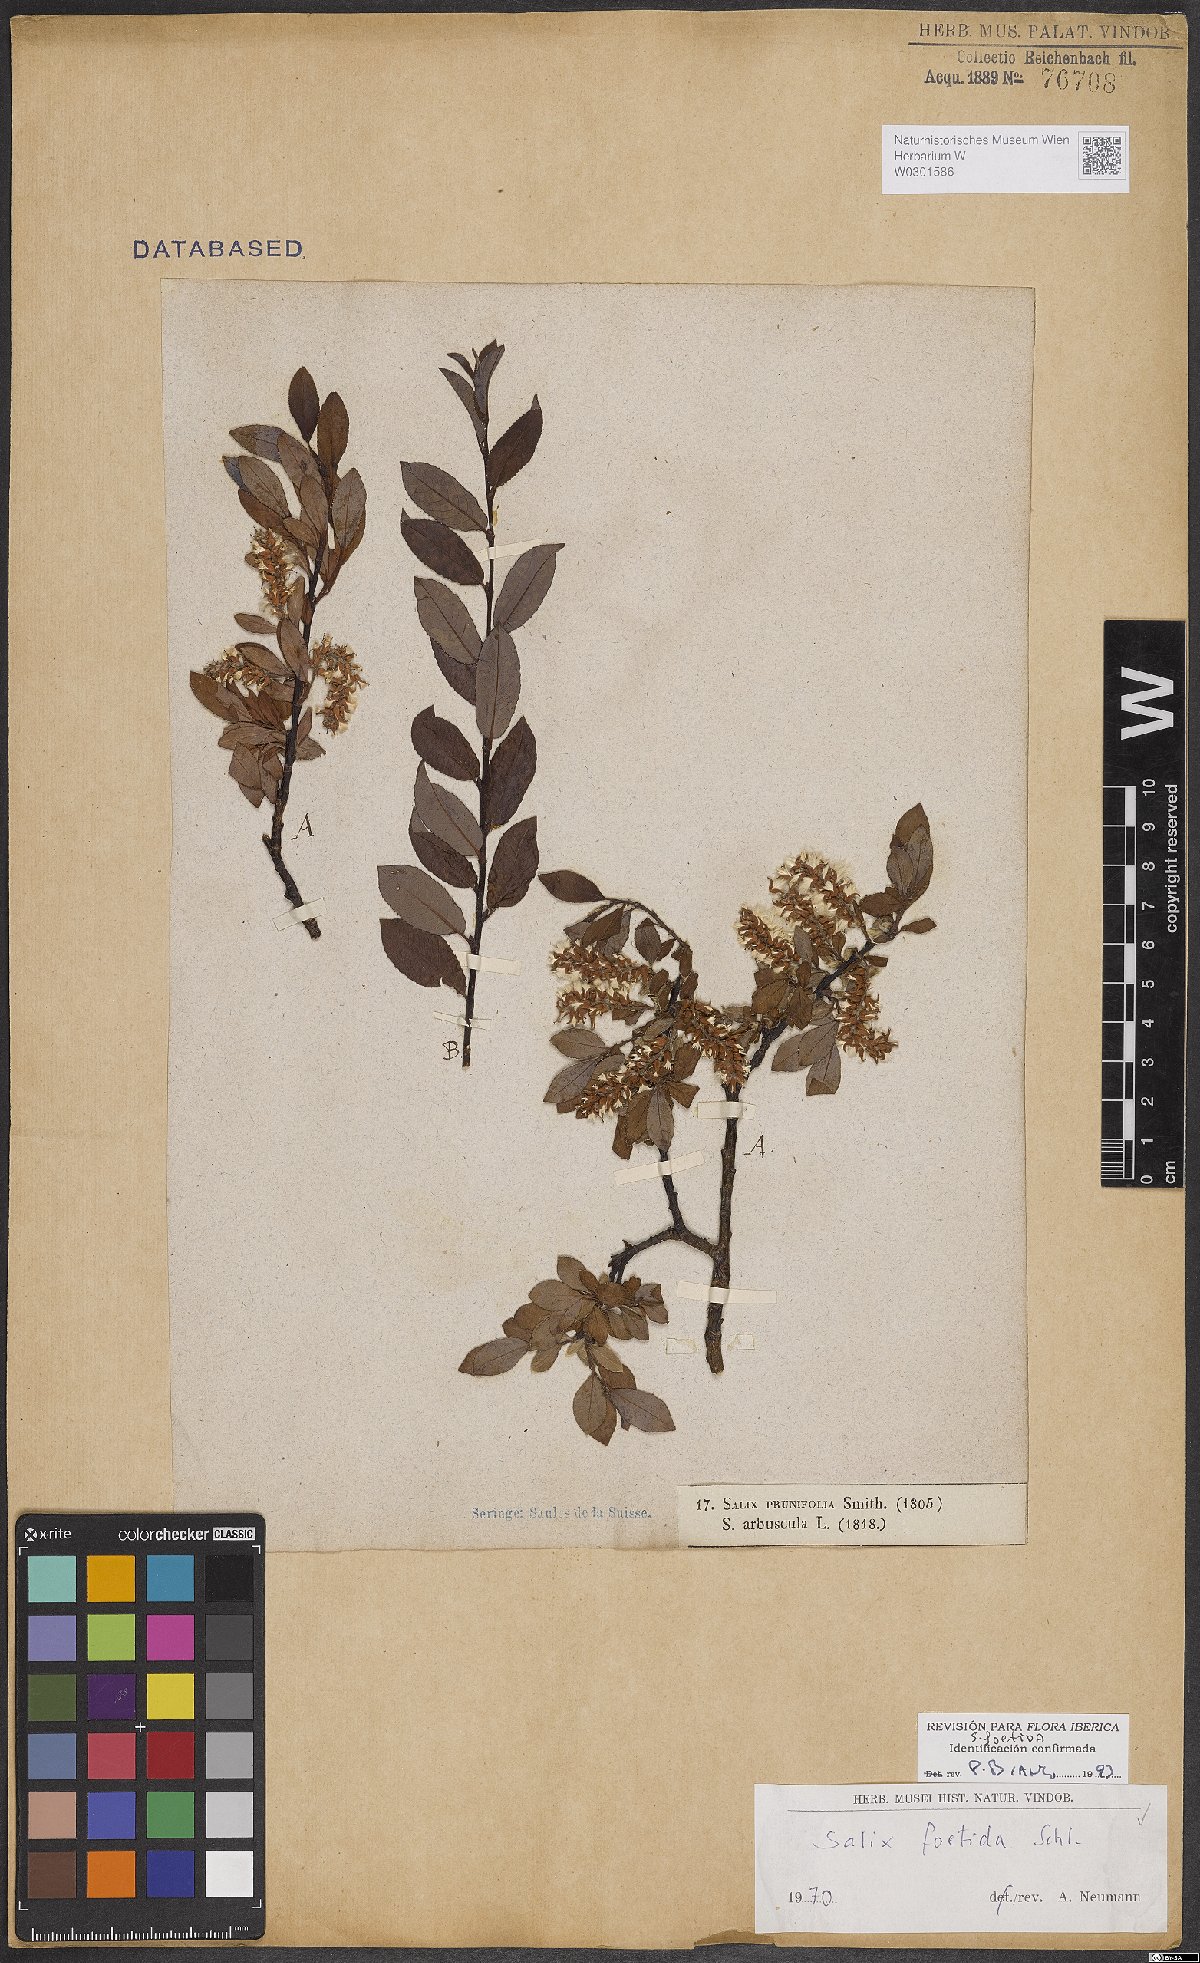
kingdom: Plantae
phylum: Tracheophyta
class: Magnoliopsida
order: Malpighiales
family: Salicaceae
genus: Salix
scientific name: Salix foetida
